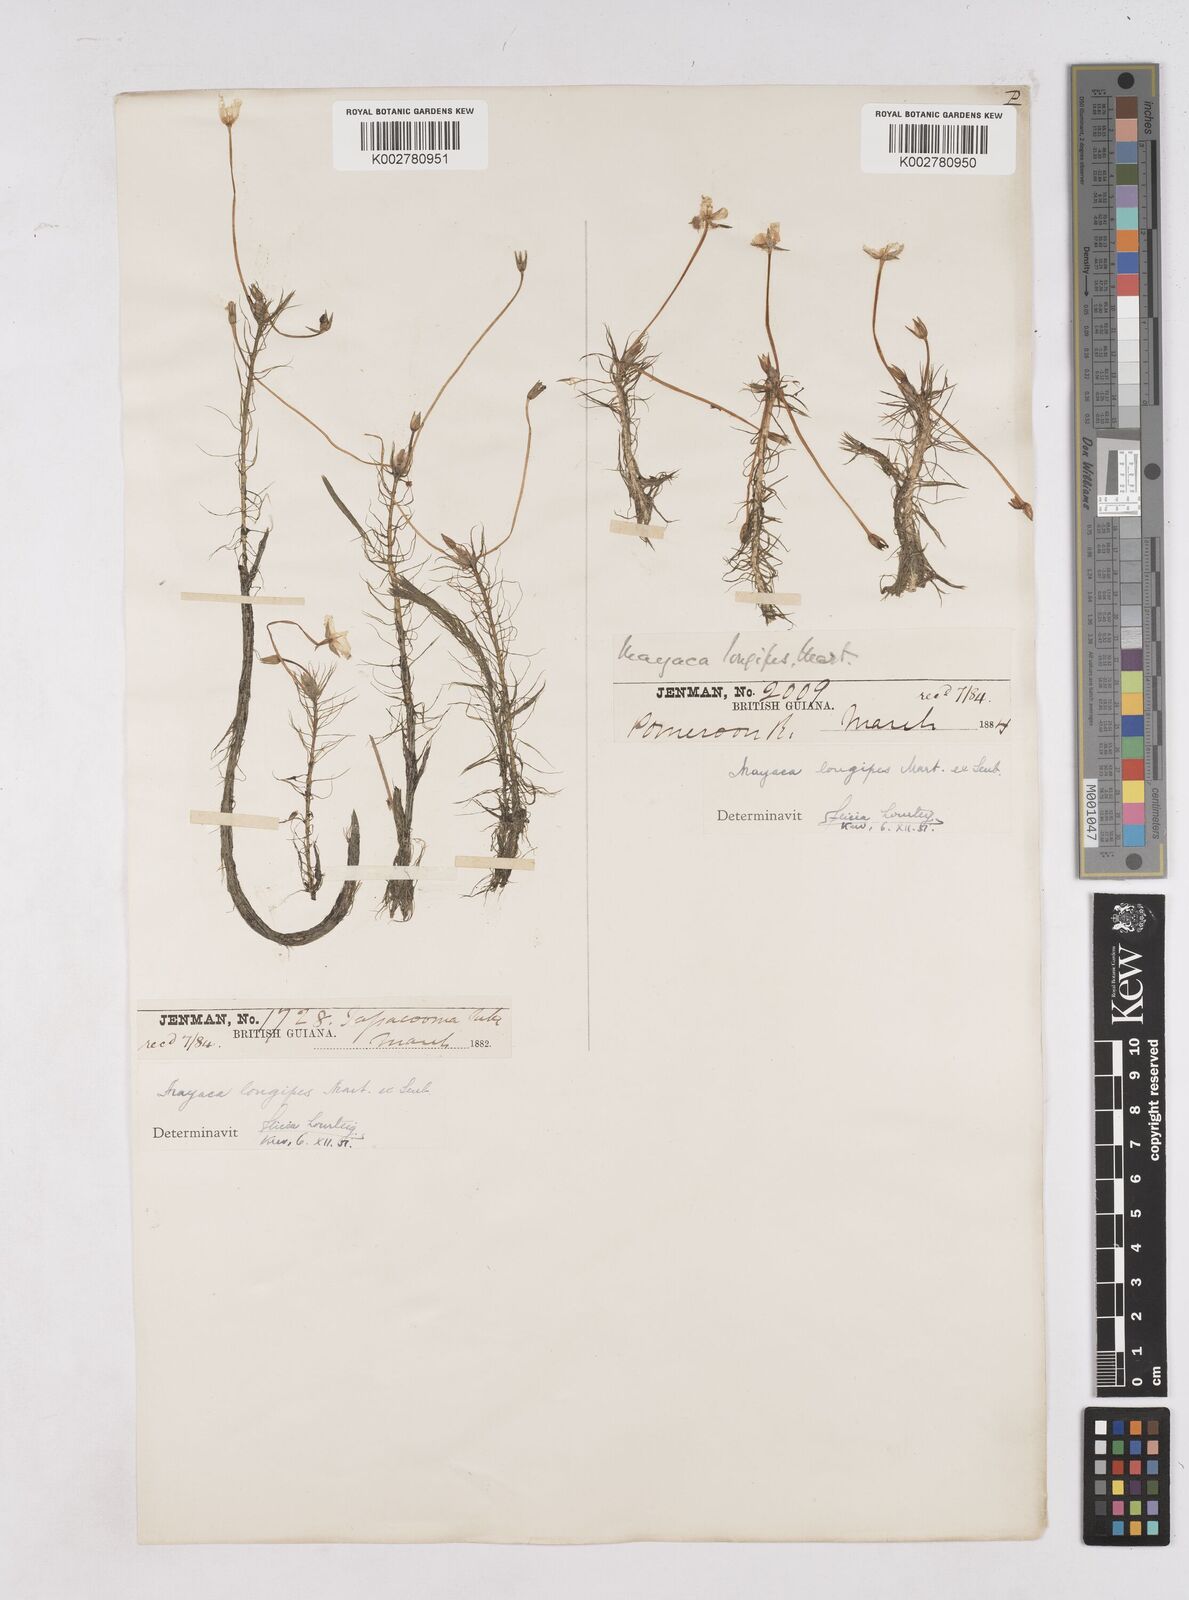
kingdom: Plantae
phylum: Tracheophyta
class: Liliopsida
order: Poales
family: Mayacaceae
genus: Mayaca
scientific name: Mayaca fluviatilis
